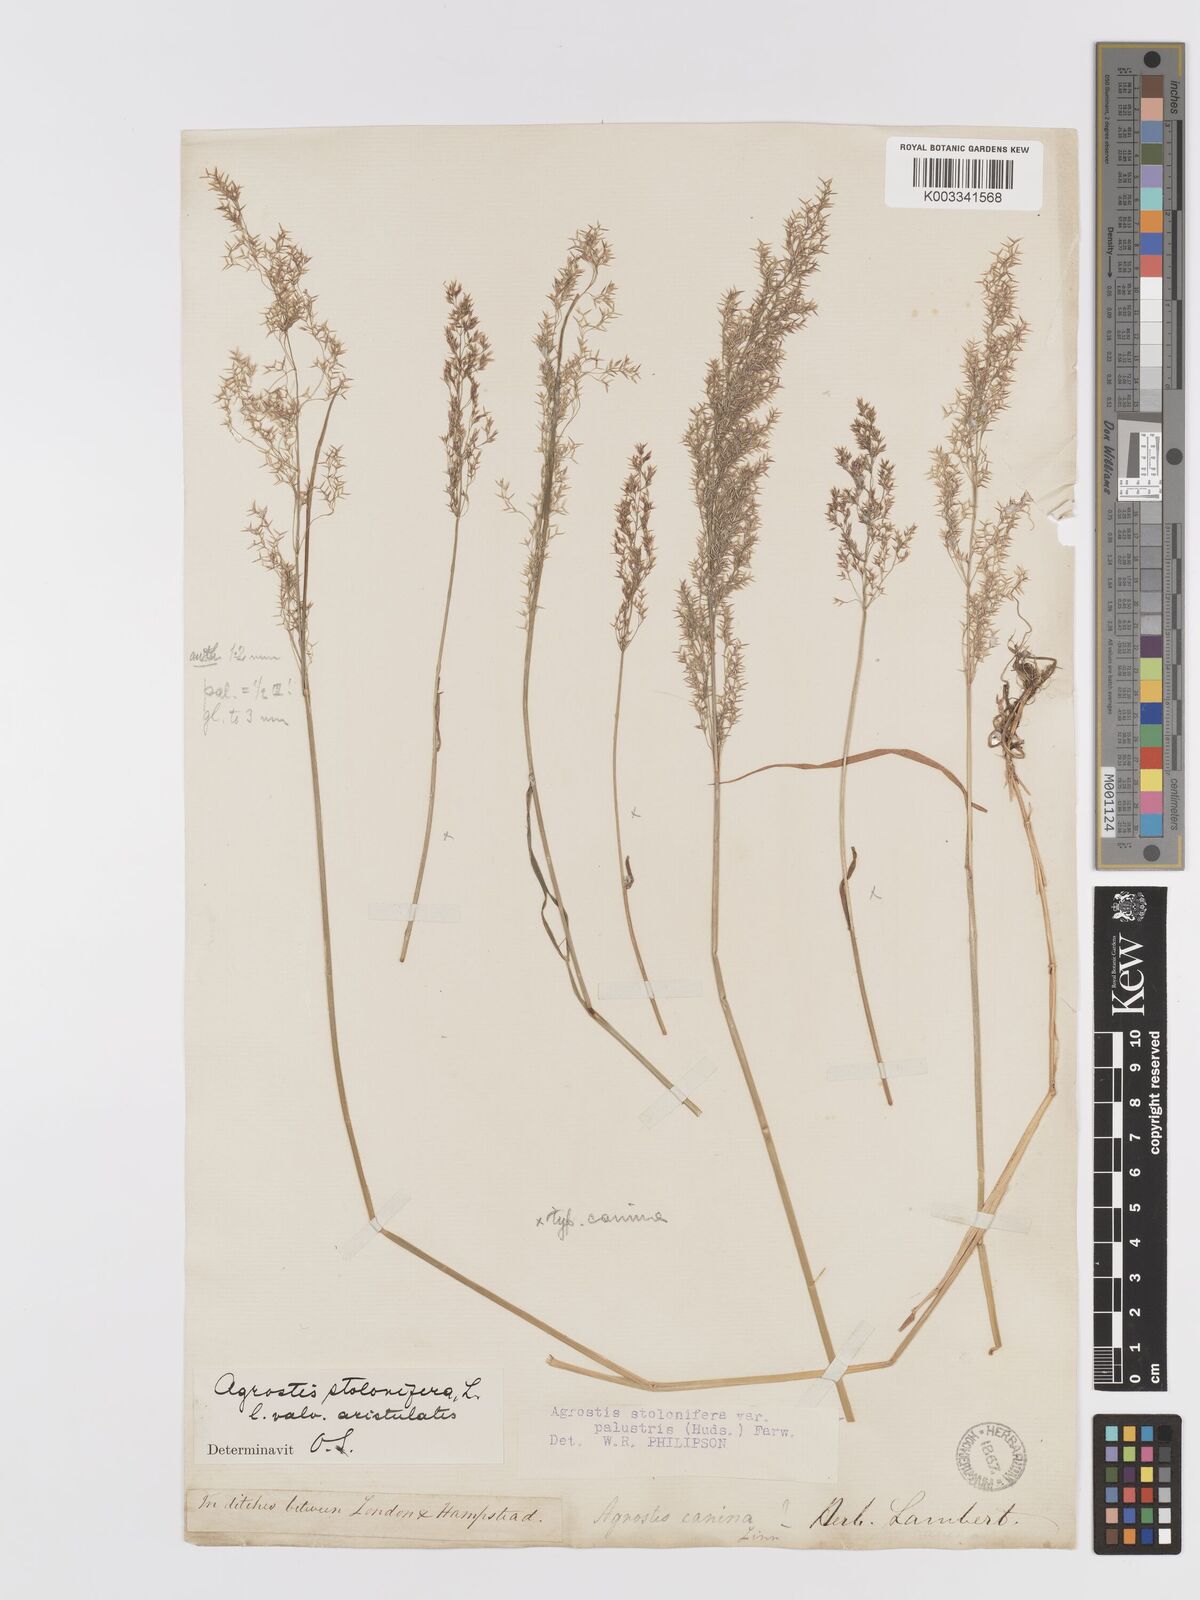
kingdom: Plantae
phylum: Tracheophyta
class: Liliopsida
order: Poales
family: Poaceae
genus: Agrostis
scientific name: Agrostis stolonifera
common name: Creeping bentgrass
